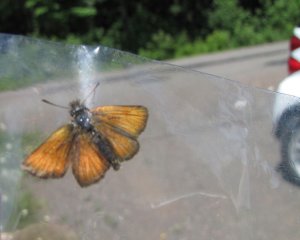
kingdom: Animalia
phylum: Arthropoda
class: Insecta
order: Lepidoptera
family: Hesperiidae
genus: Thymelicus
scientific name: Thymelicus lineola
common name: European Skipper
